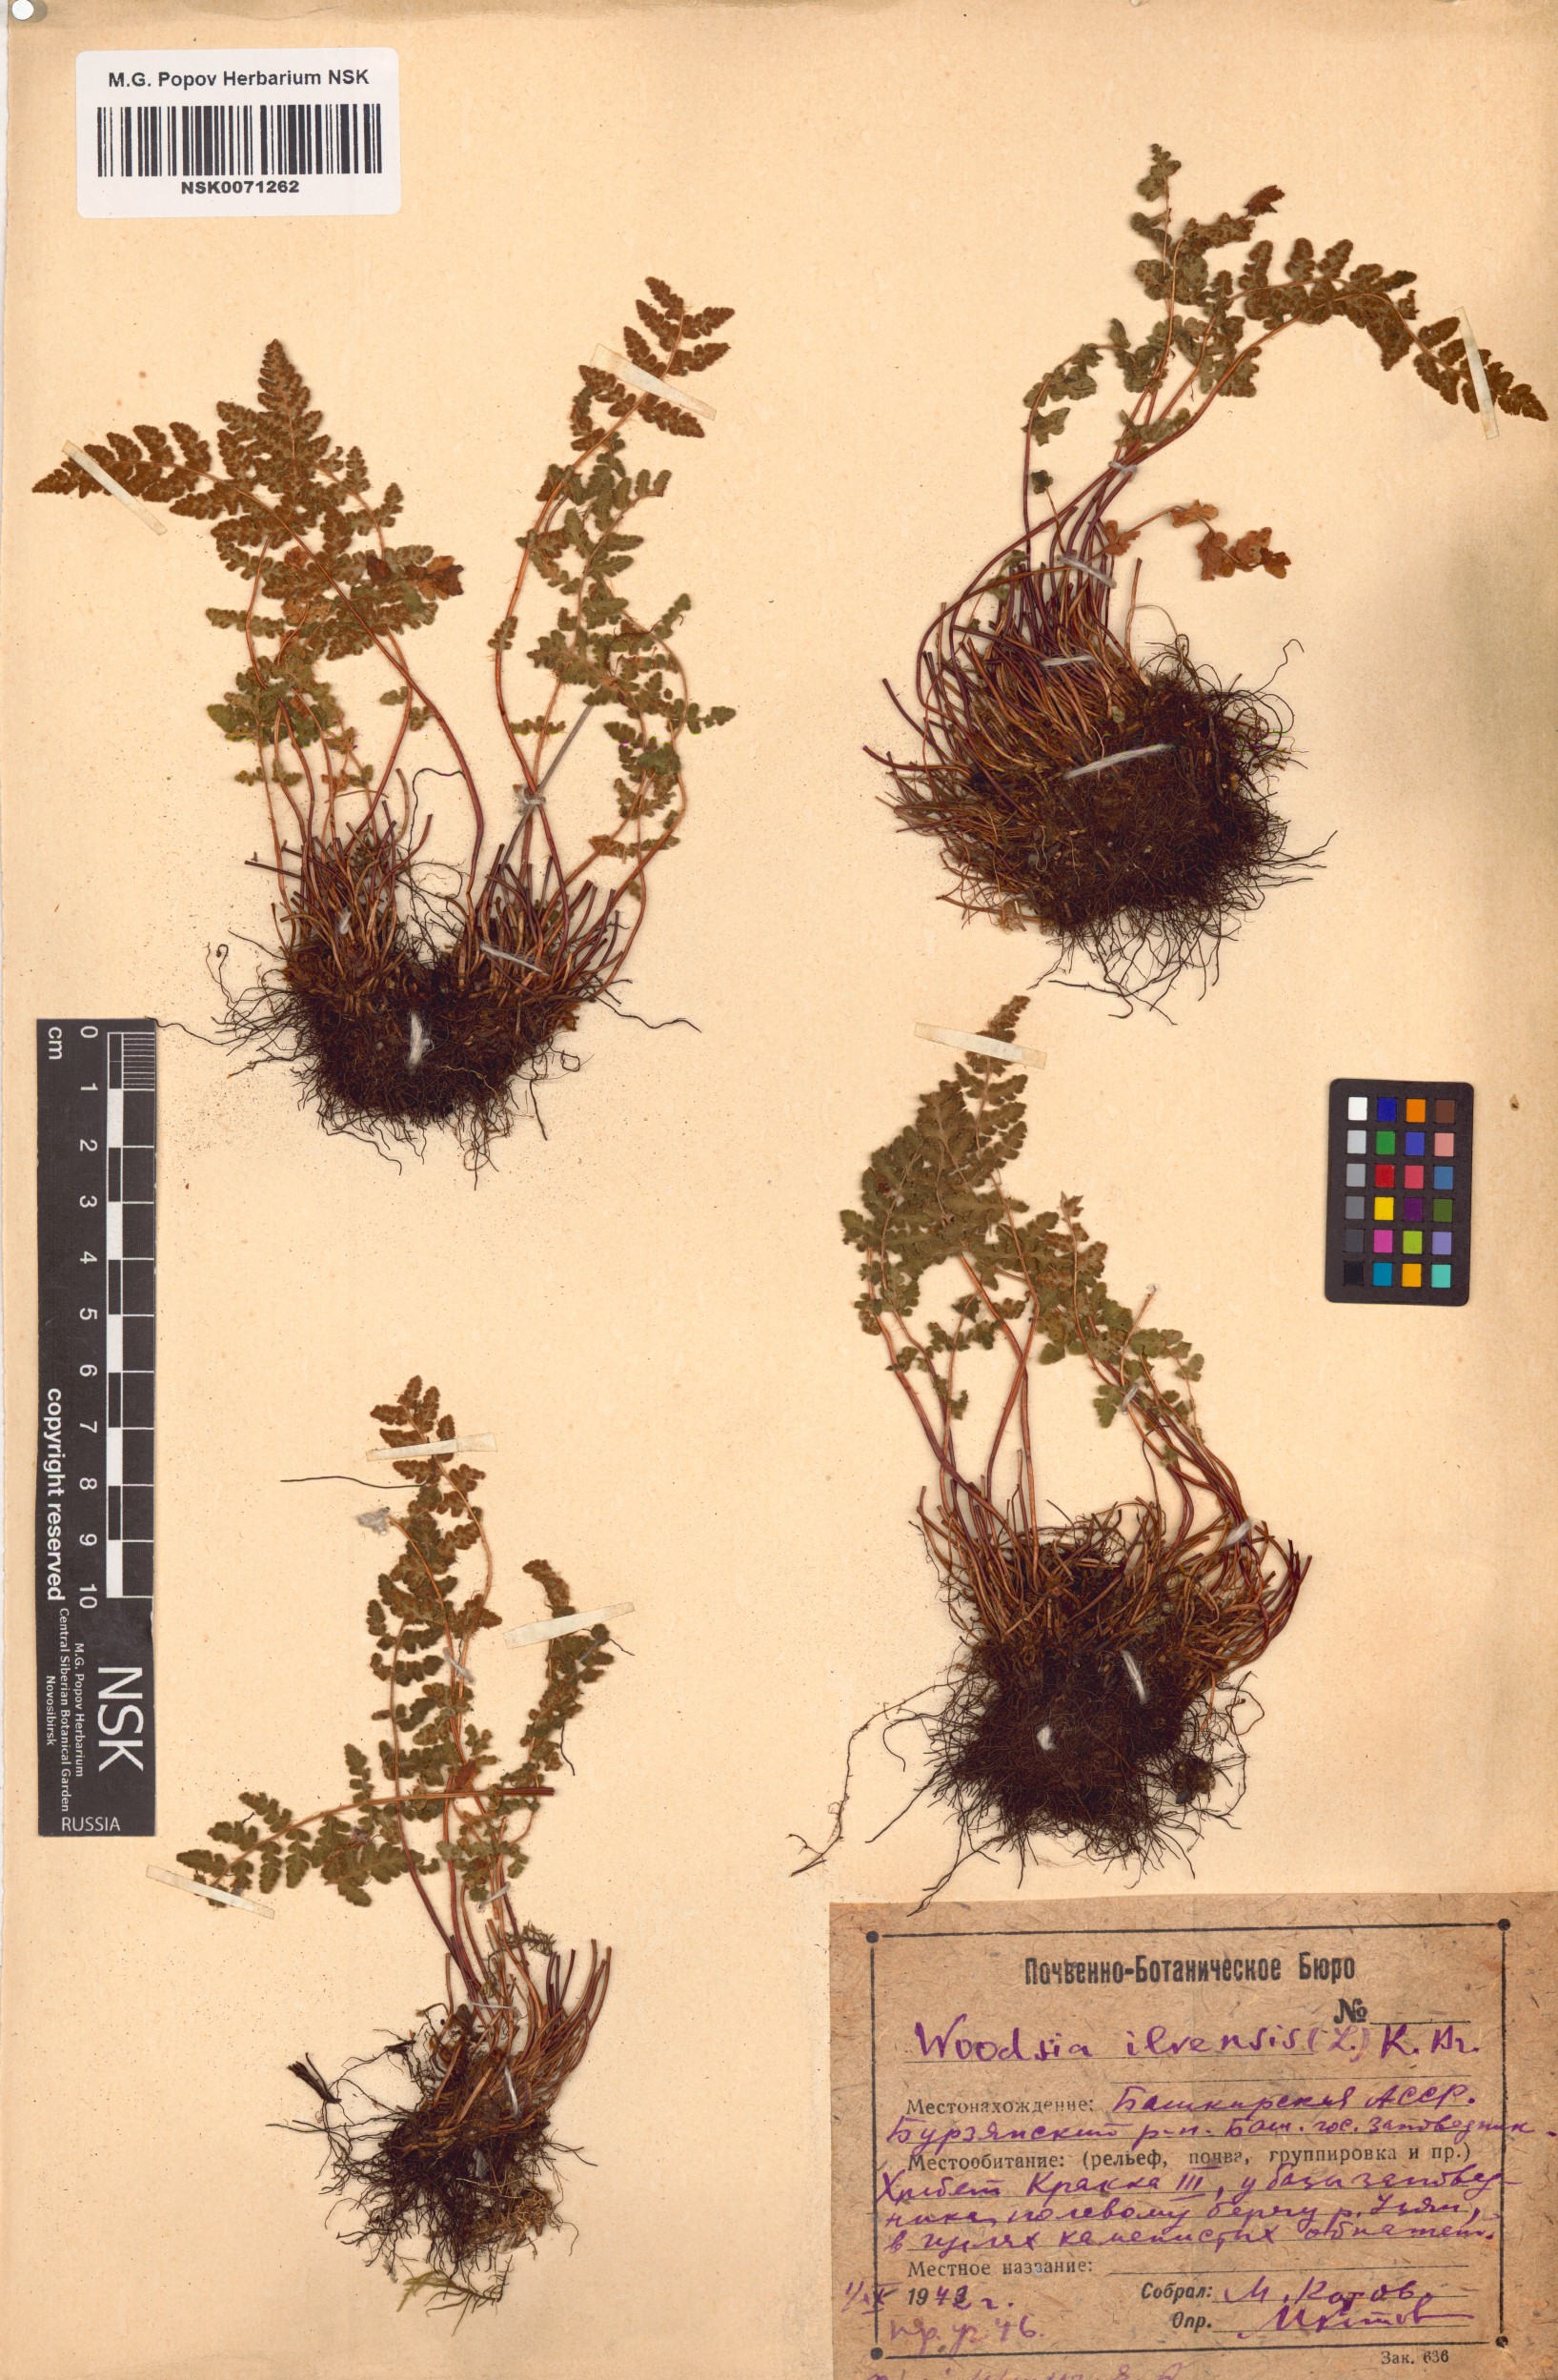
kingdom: Plantae
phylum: Tracheophyta
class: Polypodiopsida
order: Polypodiales
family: Woodsiaceae
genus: Woodsia
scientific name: Woodsia ilvensis
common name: Fragrant woodsia
